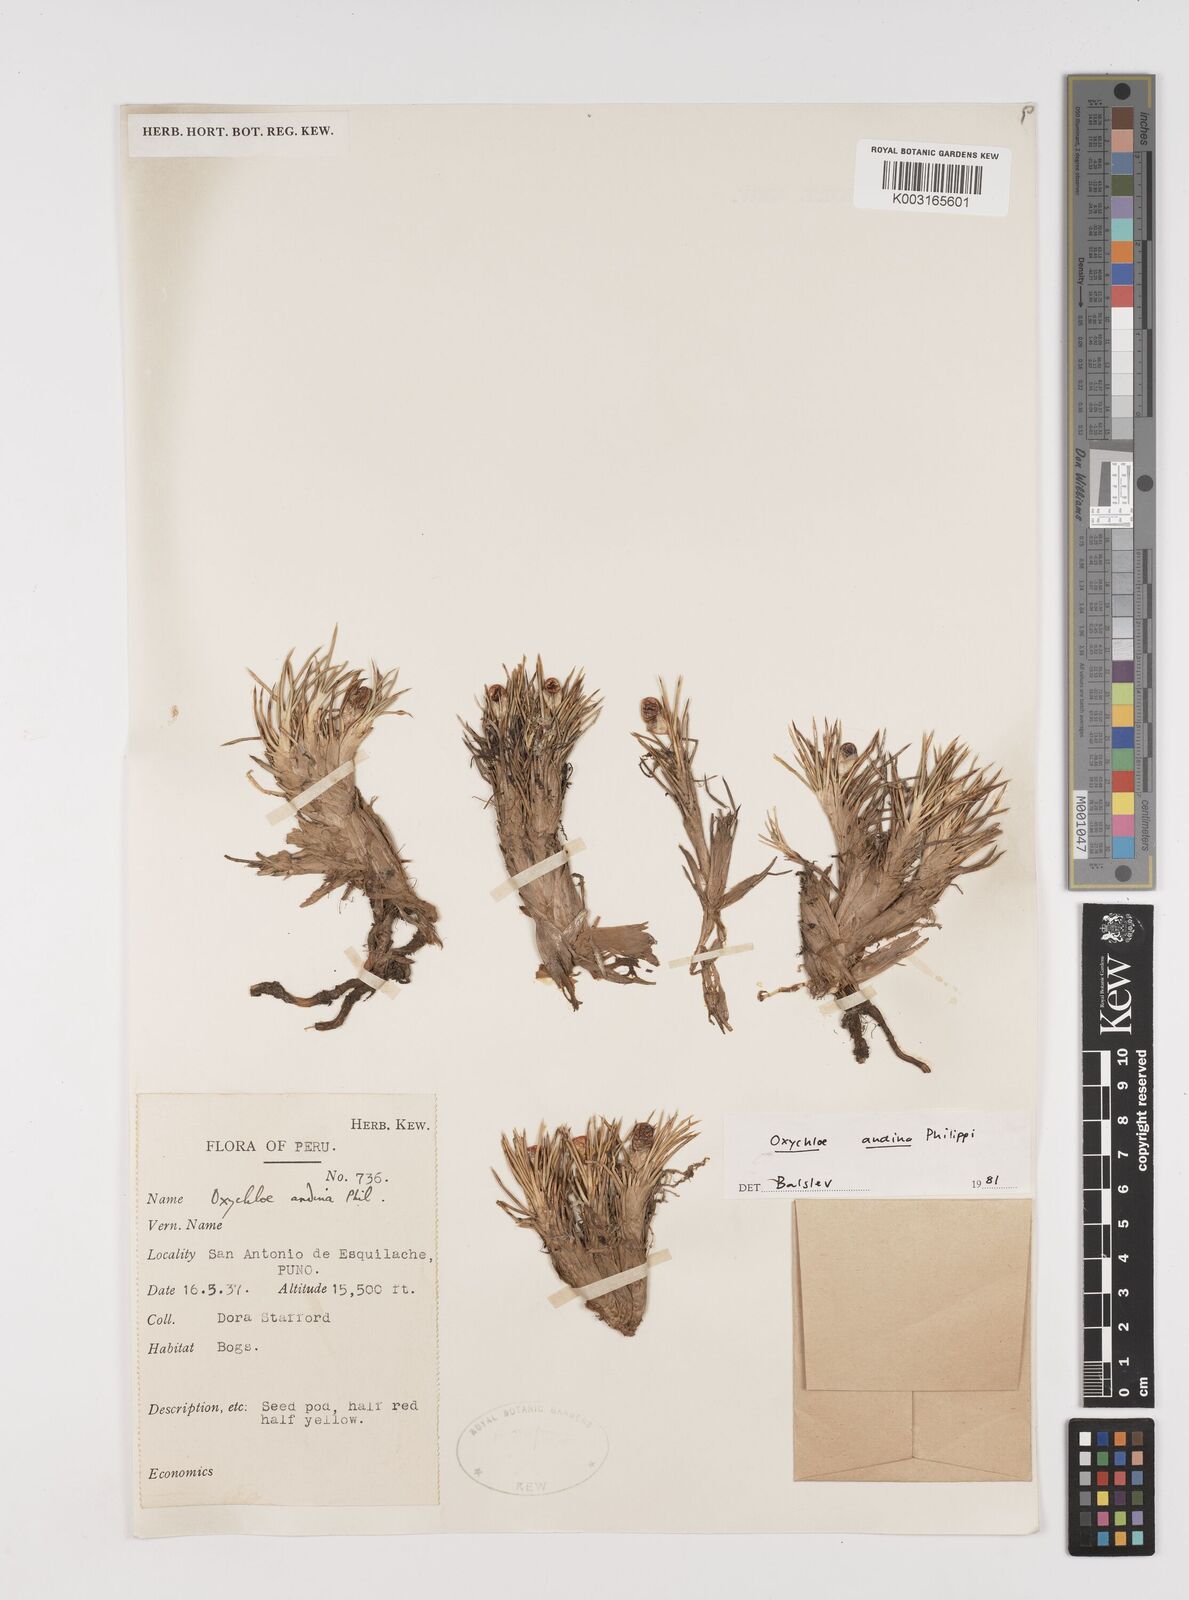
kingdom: Plantae
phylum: Tracheophyta
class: Liliopsida
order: Poales
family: Juncaceae
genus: Oxychloe
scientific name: Oxychloe andina
